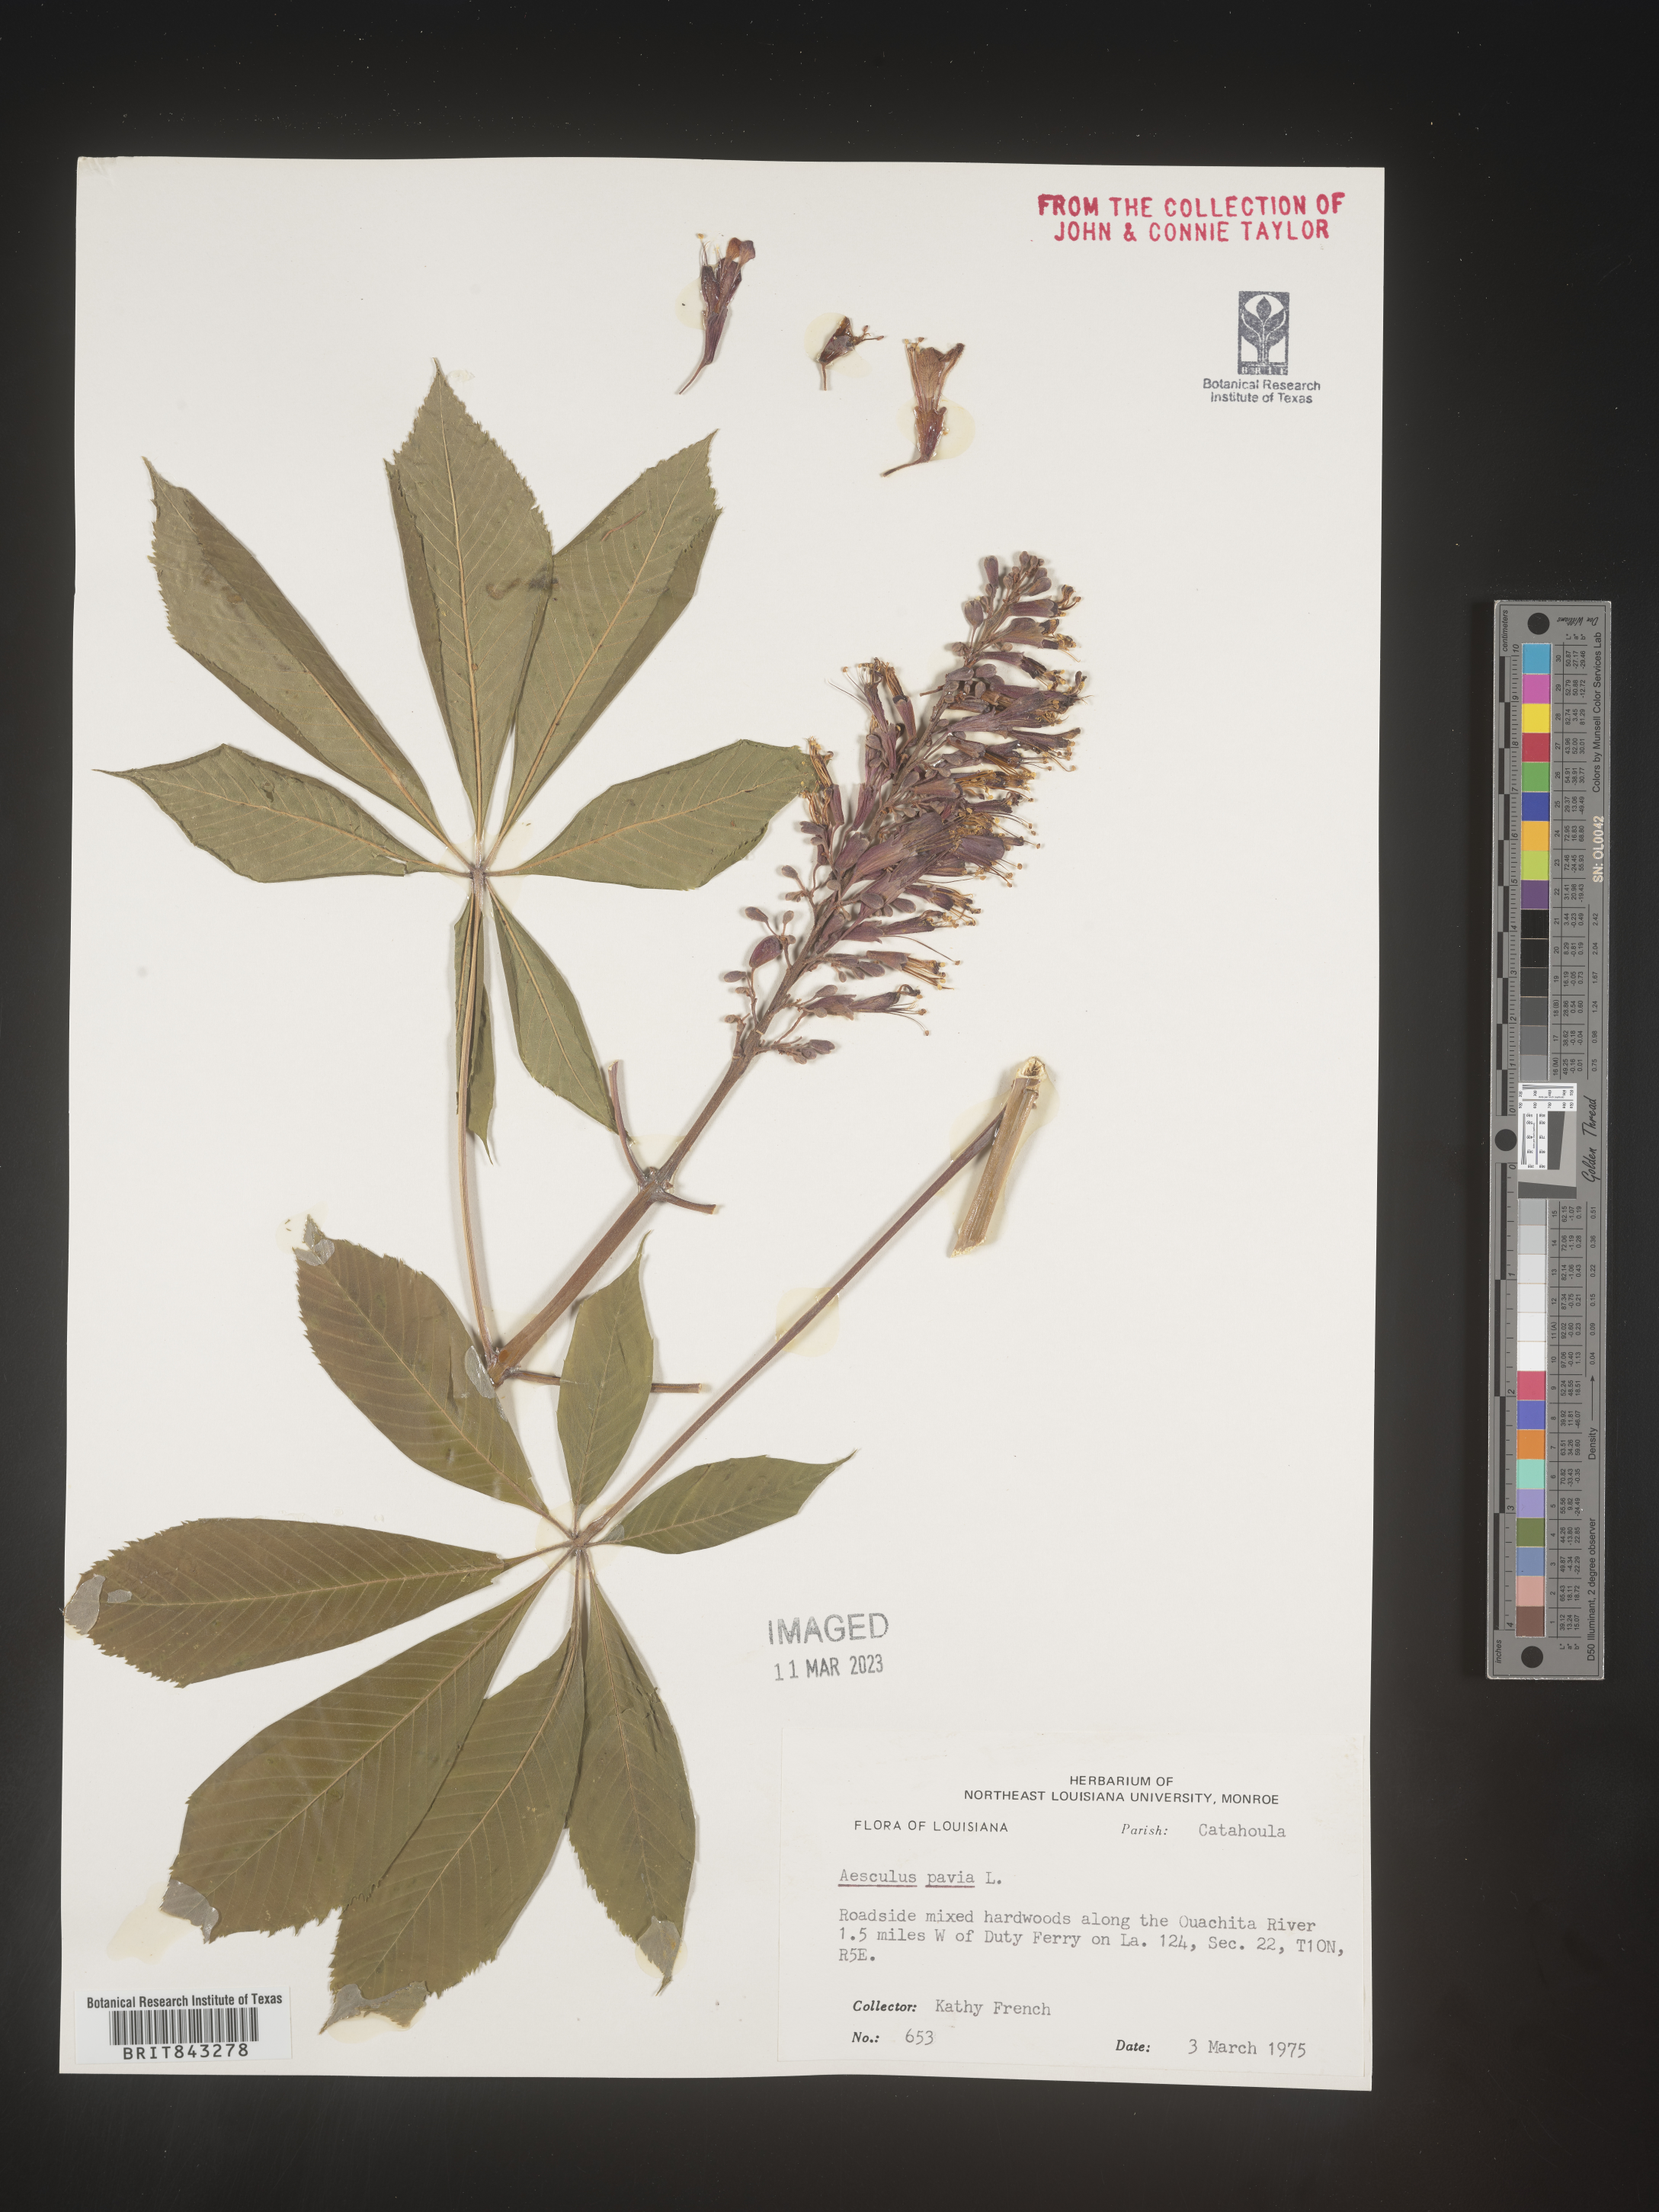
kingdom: Plantae
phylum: Tracheophyta
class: Magnoliopsida
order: Sapindales
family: Sapindaceae
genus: Aesculus
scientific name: Aesculus pavia
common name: Red buckeye
